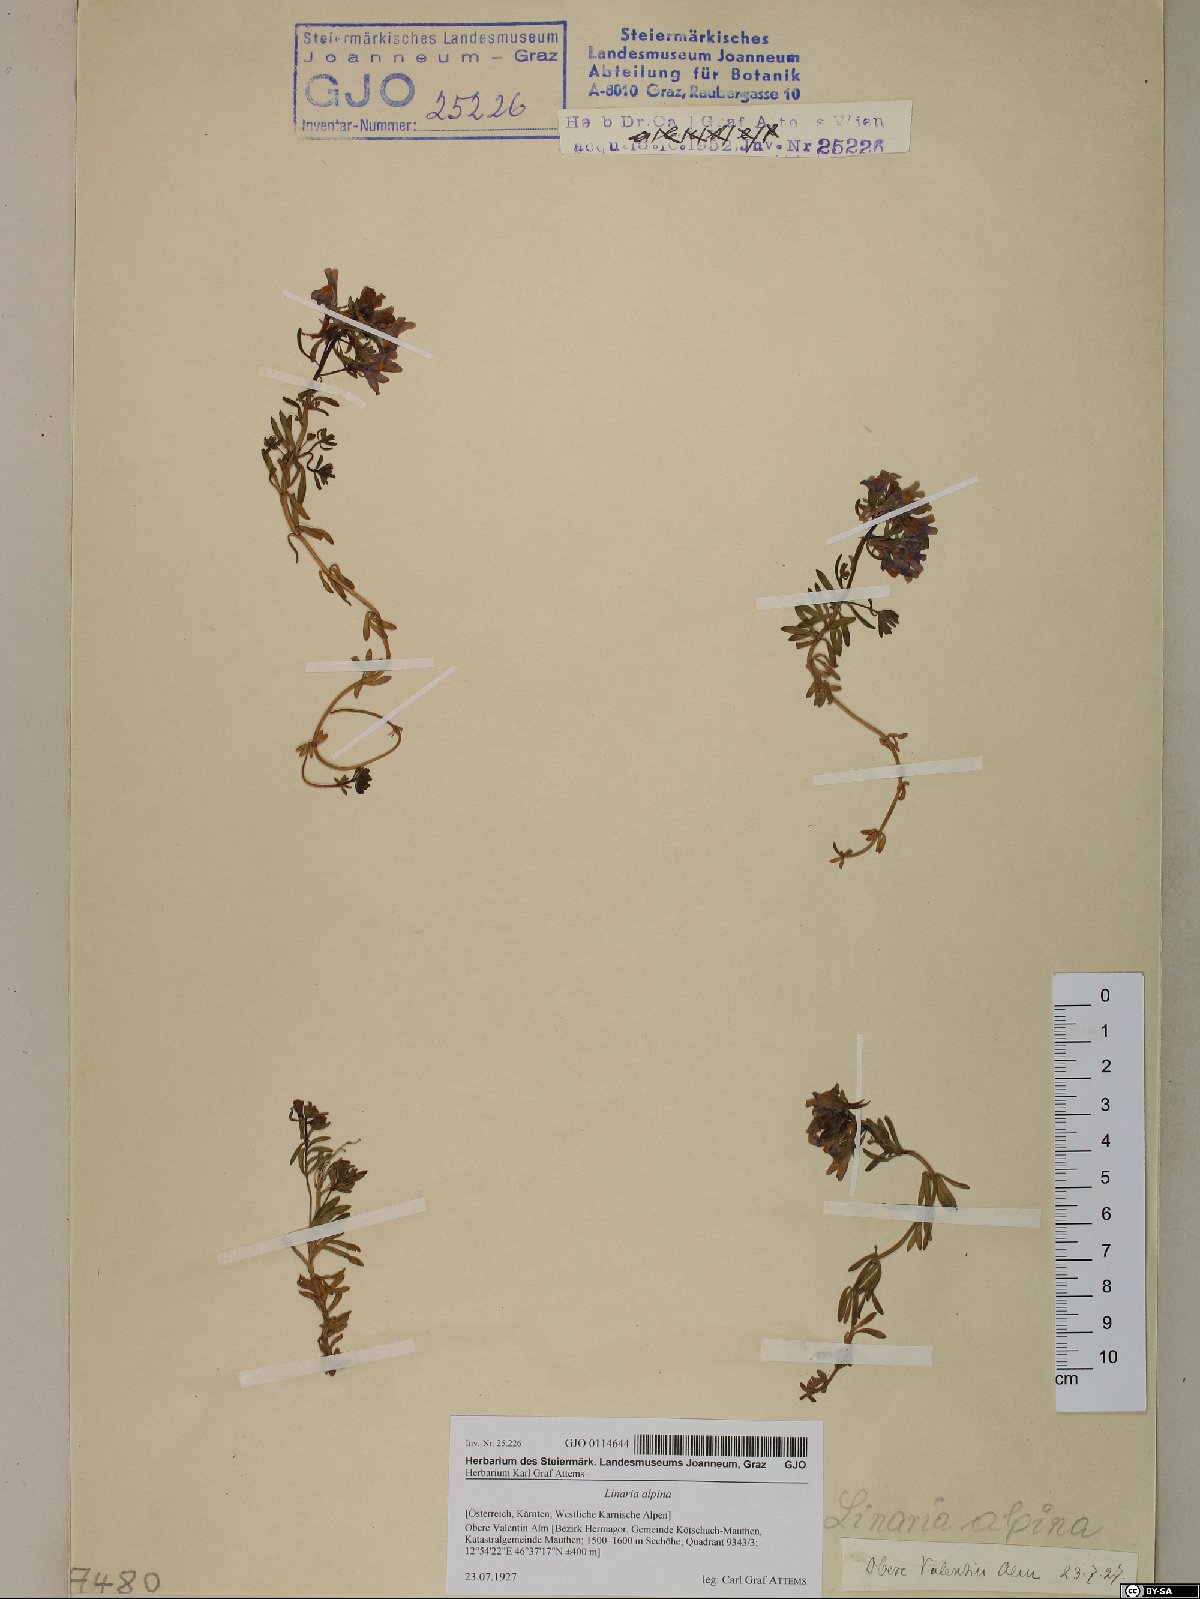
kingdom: Plantae
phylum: Tracheophyta
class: Magnoliopsida
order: Lamiales
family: Plantaginaceae
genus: Linaria
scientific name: Linaria alpina
